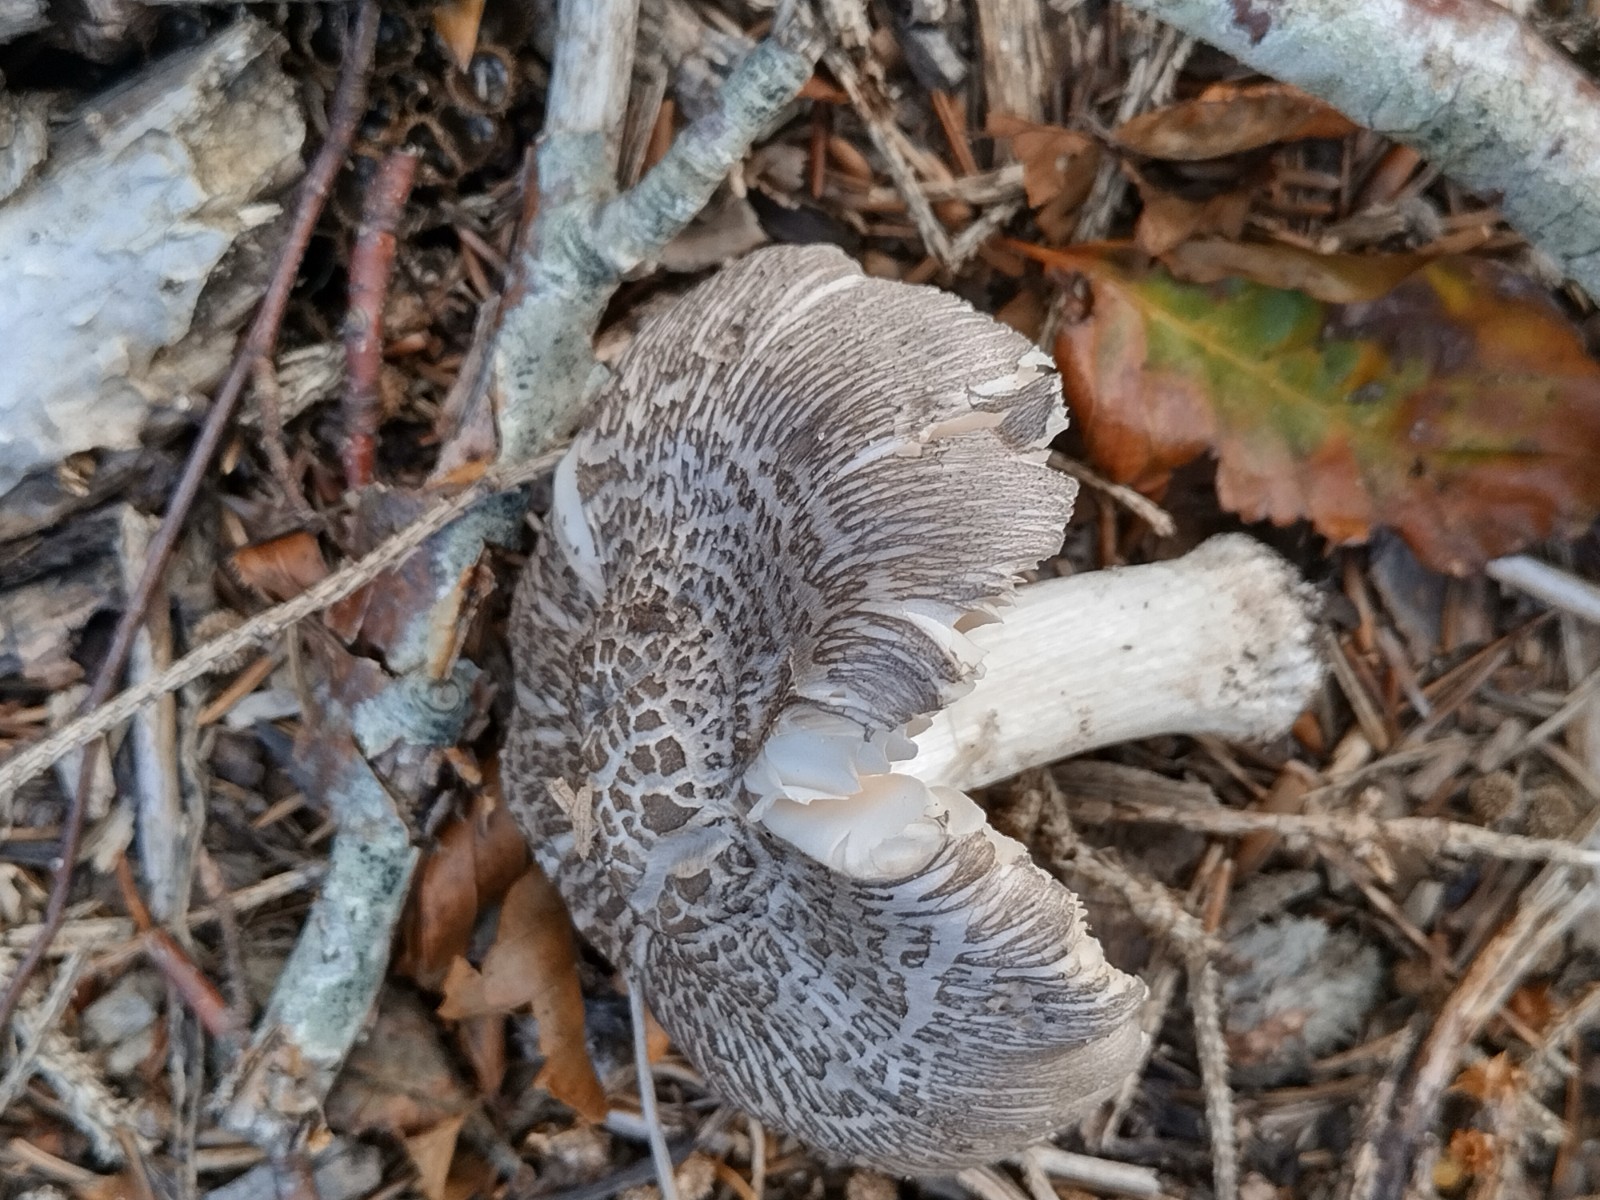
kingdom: Fungi
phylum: Basidiomycota
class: Agaricomycetes
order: Agaricales
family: Pluteaceae
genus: Pluteus
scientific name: Pluteus
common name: gråfibret skærmhat
